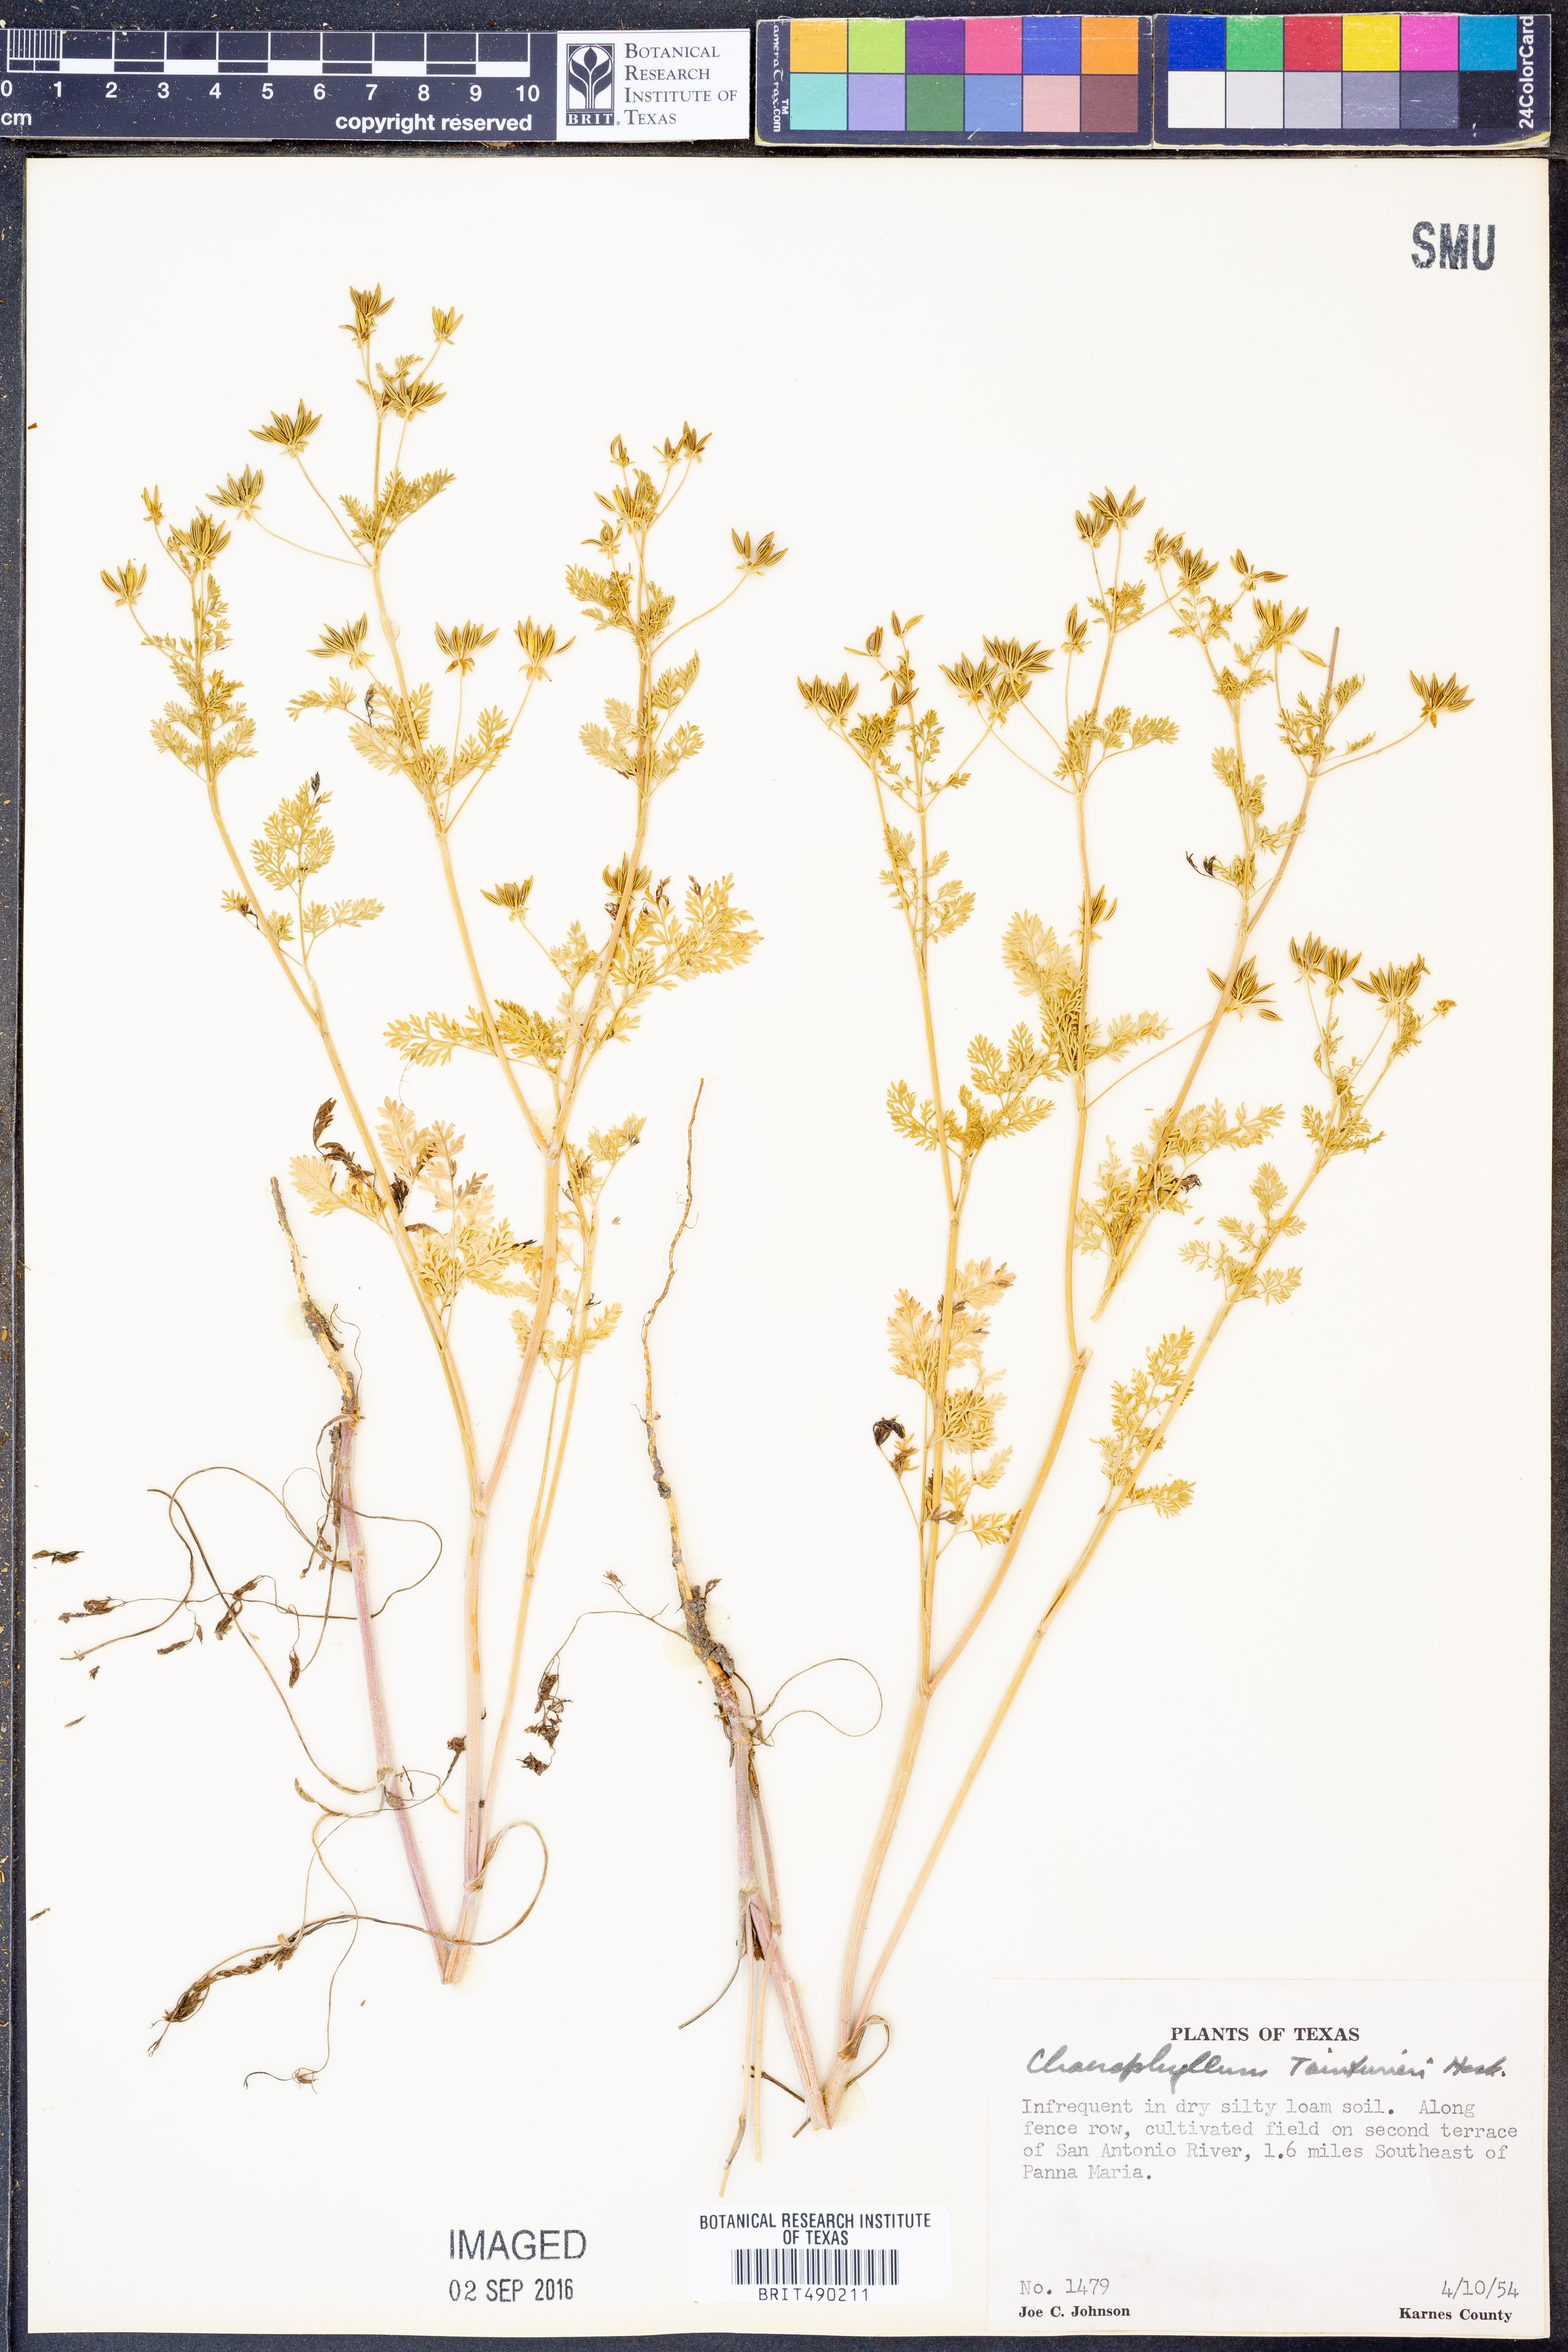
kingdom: Plantae
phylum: Tracheophyta
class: Magnoliopsida
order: Apiales
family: Apiaceae
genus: Chaerophyllum
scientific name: Chaerophyllum tainturieri
